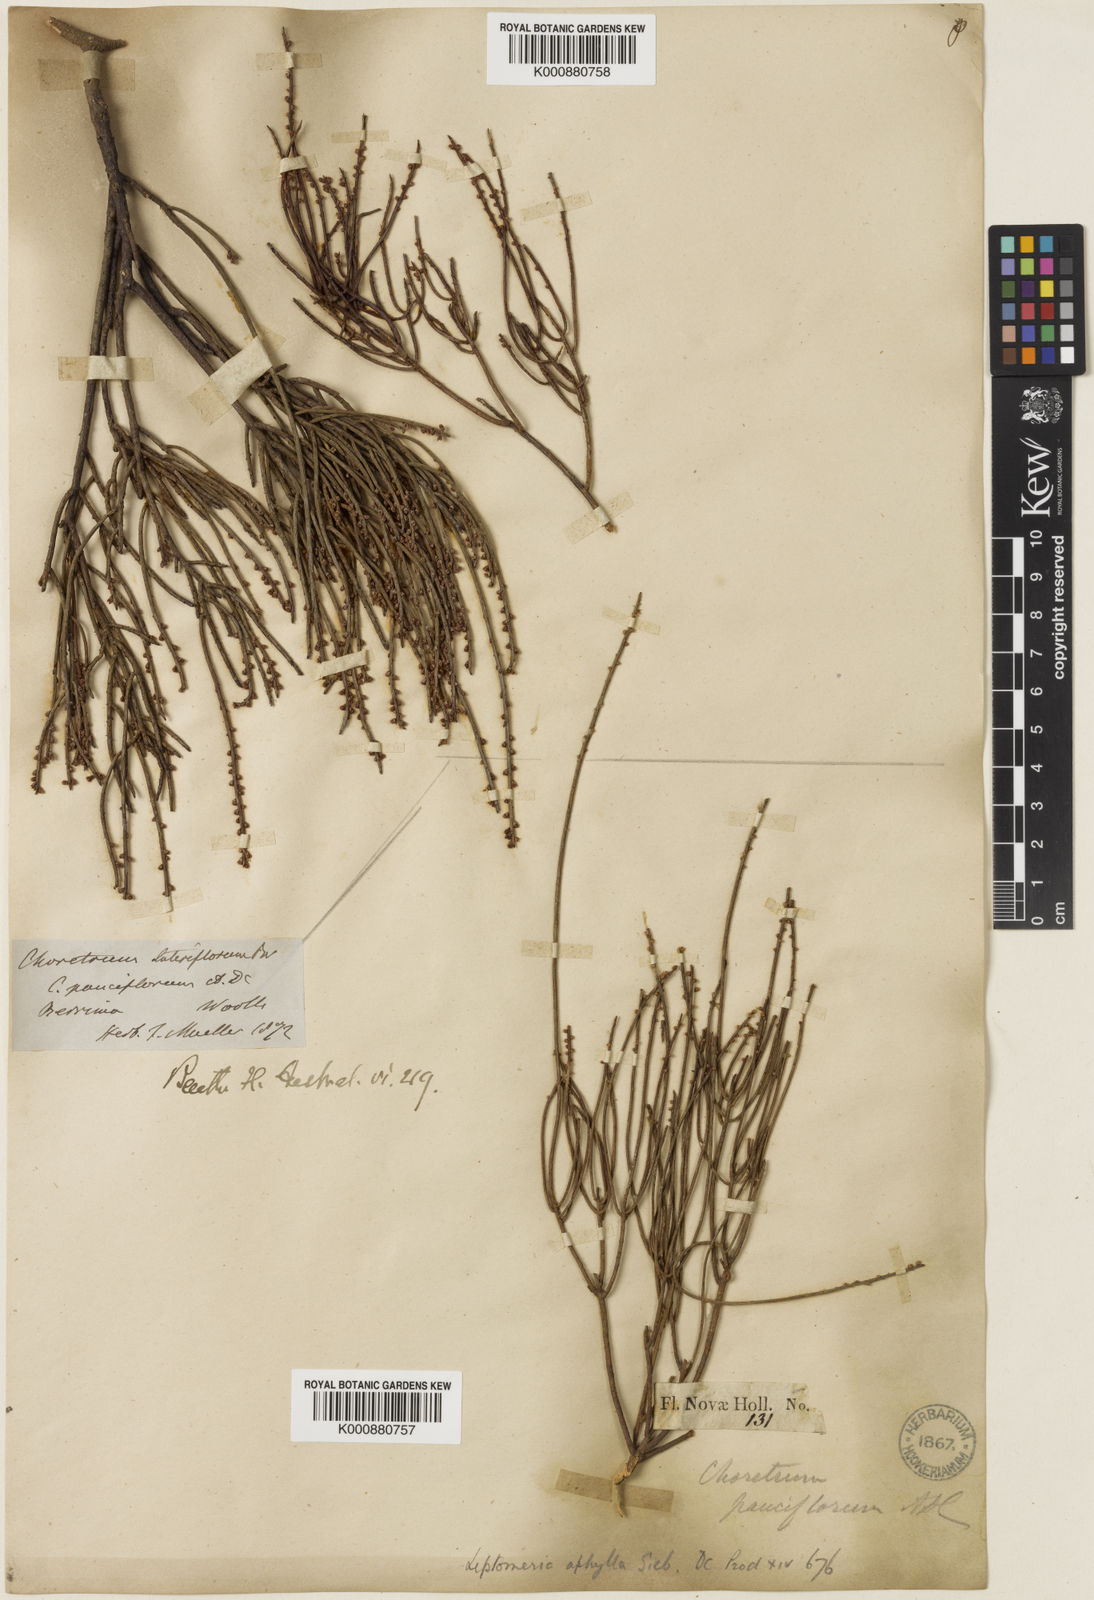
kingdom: Plantae
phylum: Tracheophyta
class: Magnoliopsida
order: Santalales
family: Amphorogynaceae
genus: Choretrum
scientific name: Choretrum pauciflorum
